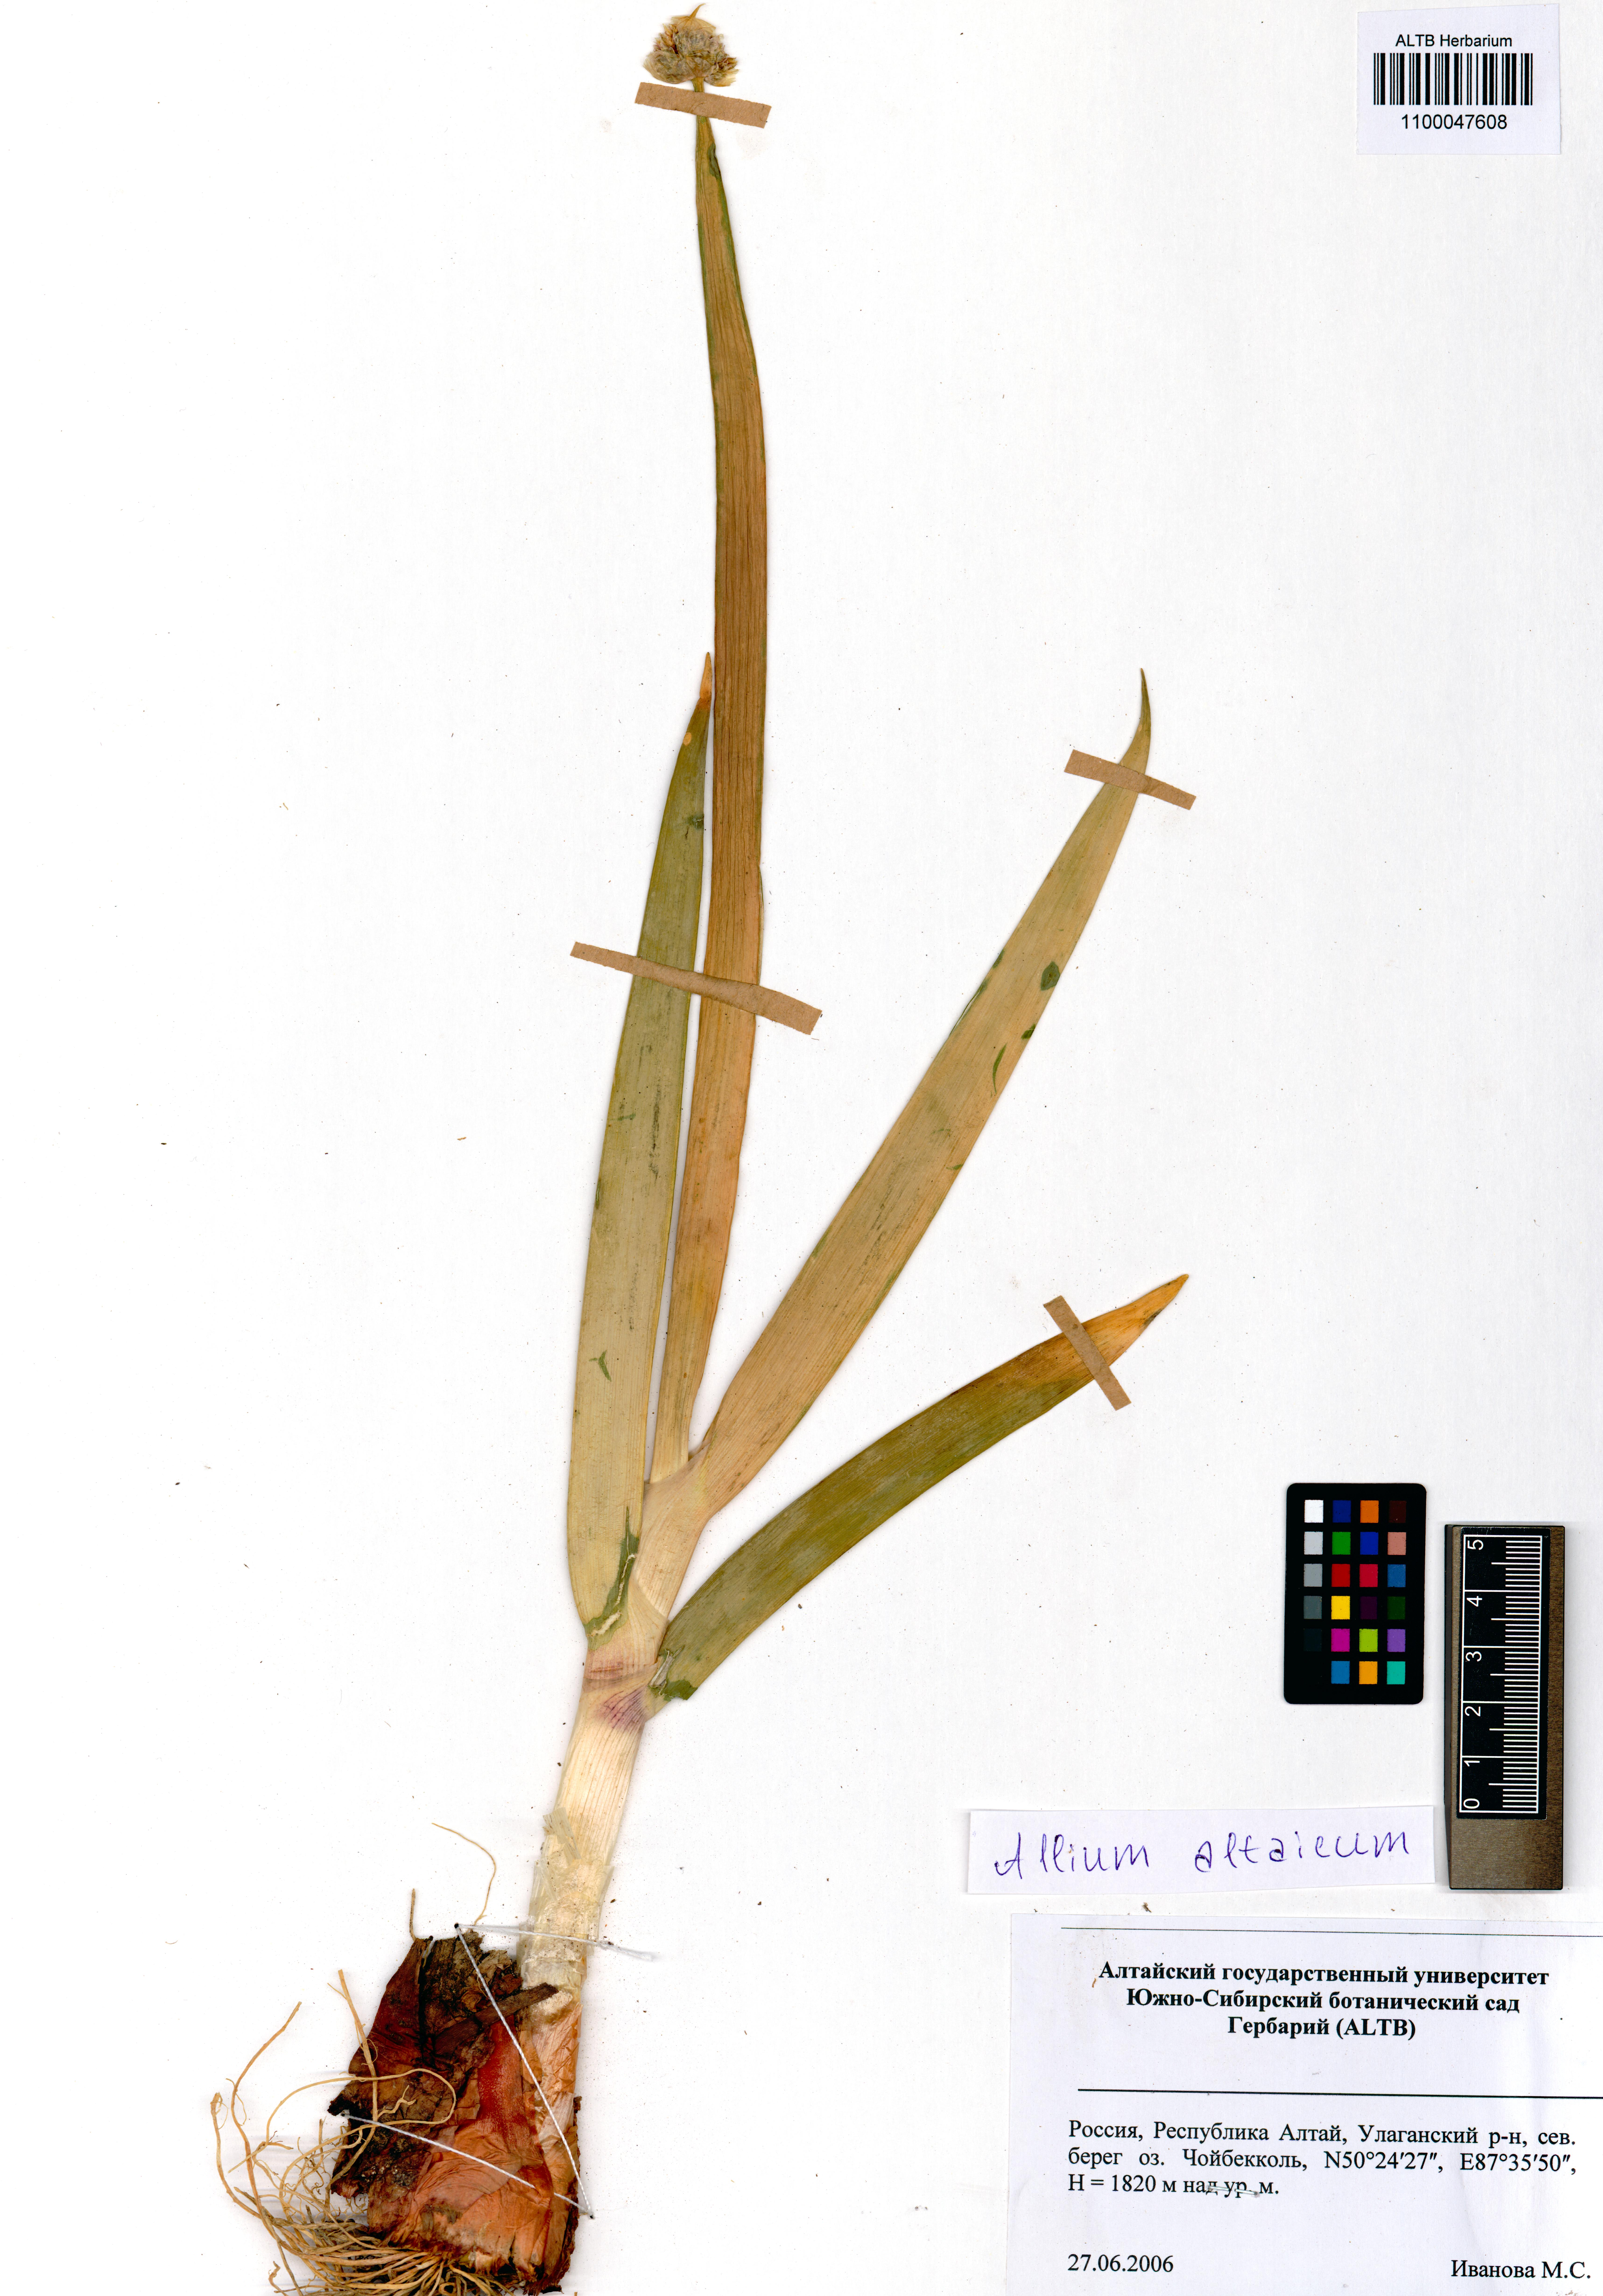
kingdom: Plantae
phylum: Tracheophyta
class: Liliopsida
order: Asparagales
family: Amaryllidaceae
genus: Allium
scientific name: Allium altaicum
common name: Altai onion
